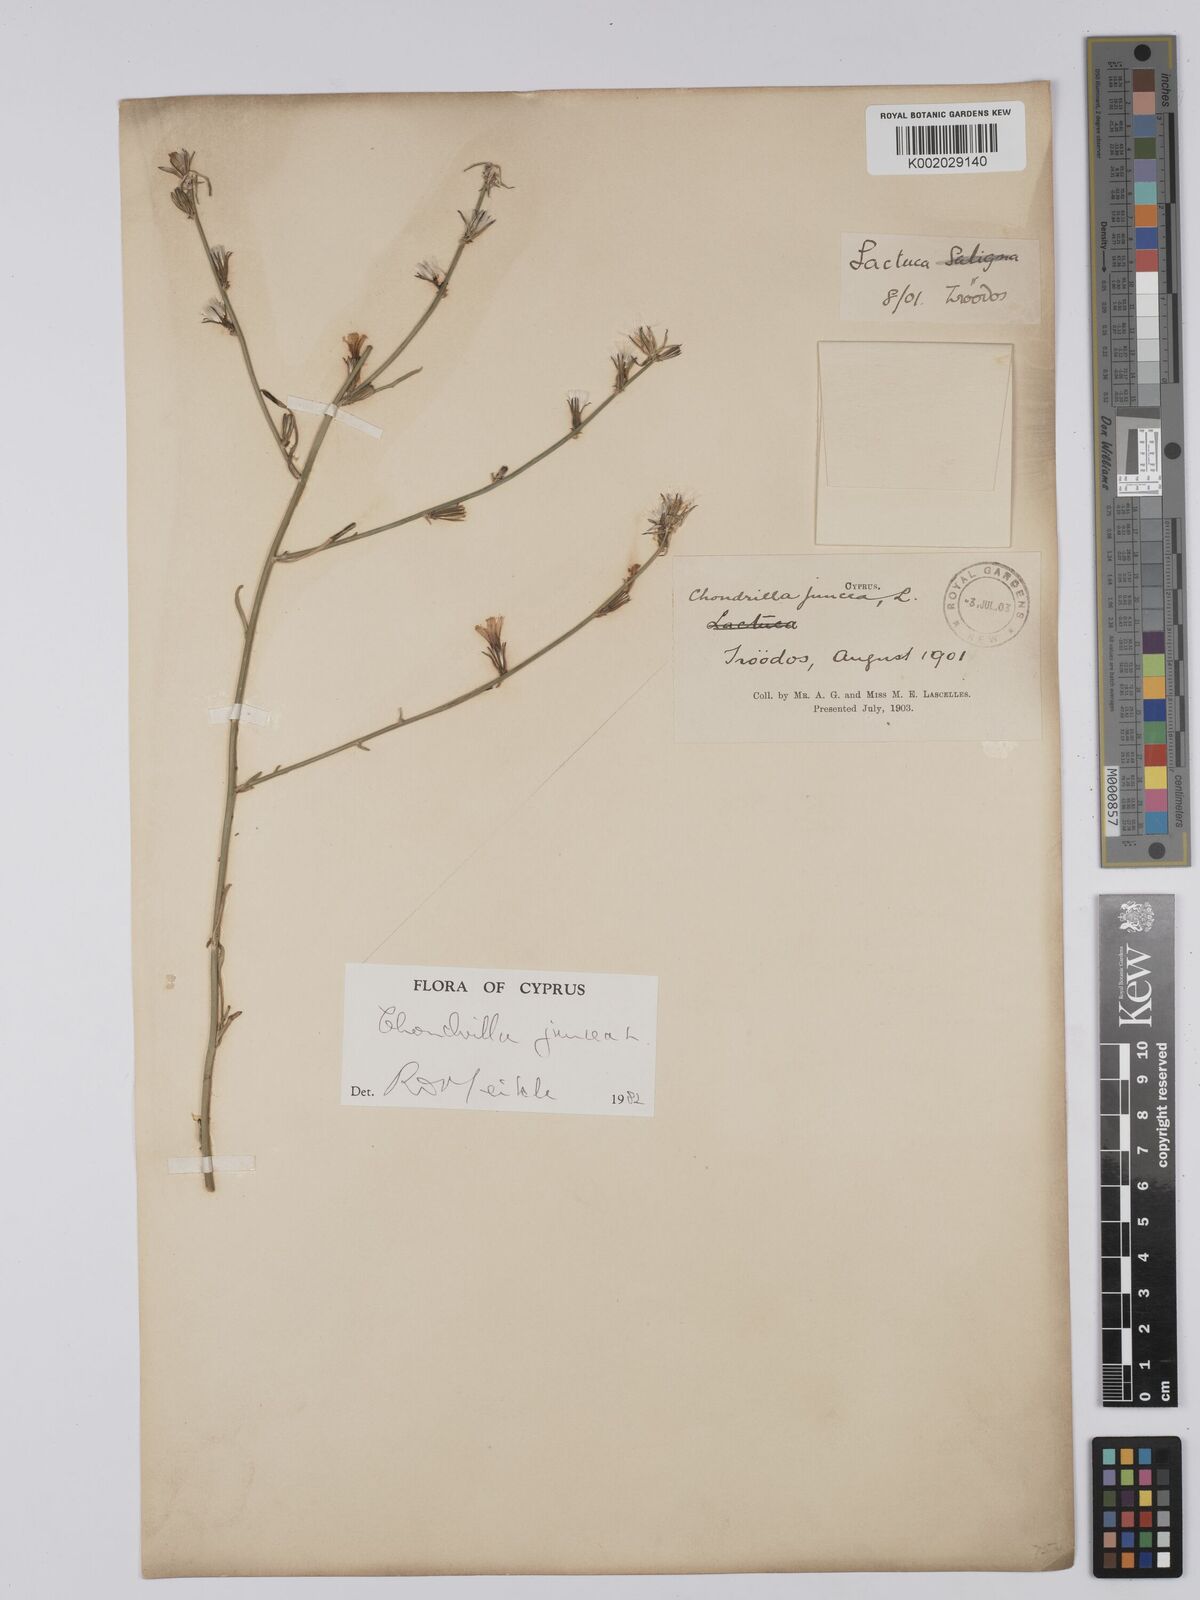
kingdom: Plantae
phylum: Tracheophyta
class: Magnoliopsida
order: Asterales
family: Asteraceae
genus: Chondrilla
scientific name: Chondrilla juncea
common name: Skeleton weed
